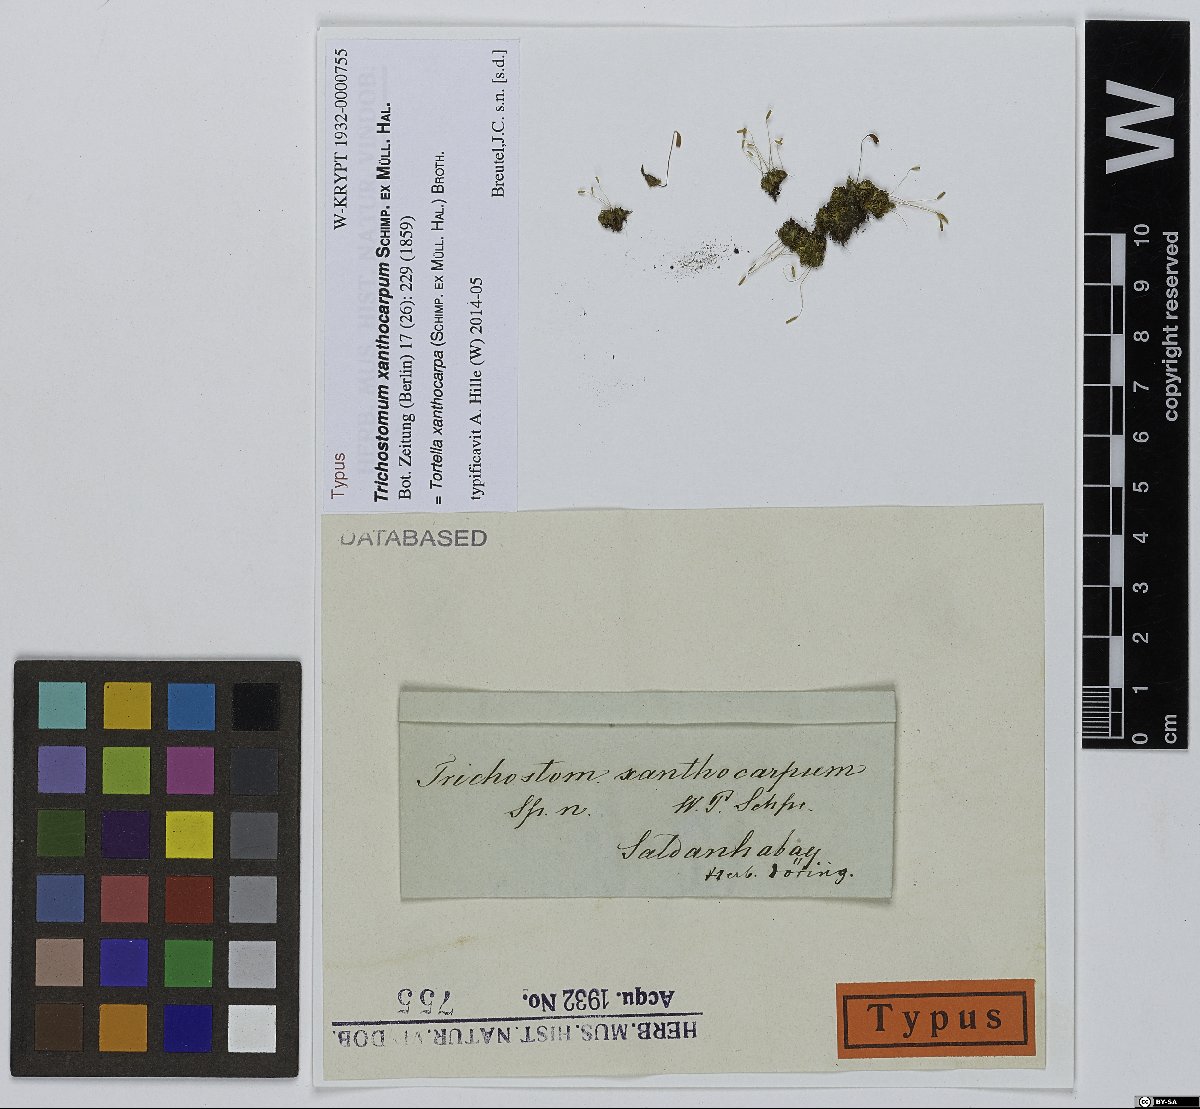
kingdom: Plantae
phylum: Bryophyta
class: Bryopsida
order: Pottiales
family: Pottiaceae
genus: Tortella
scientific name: Tortella xanthocarpa
